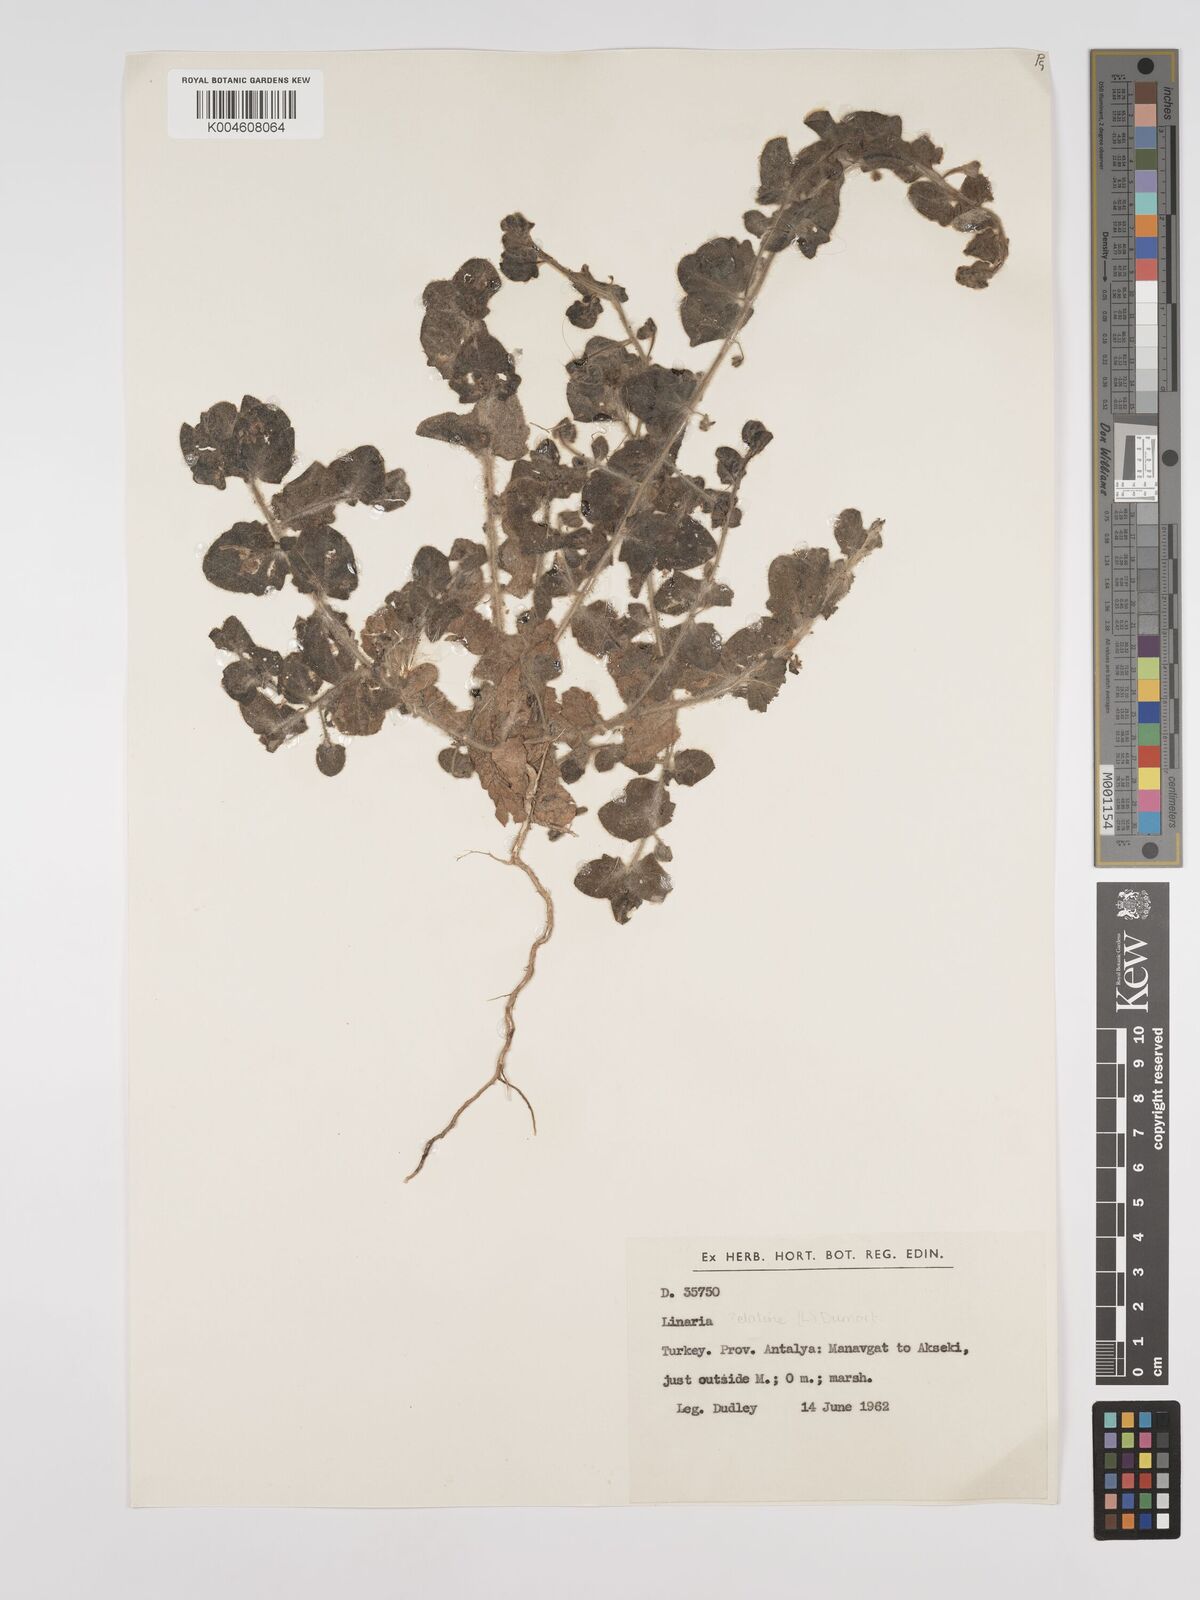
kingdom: Plantae
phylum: Tracheophyta
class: Magnoliopsida
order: Lamiales
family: Plantaginaceae
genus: Kickxia
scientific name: Kickxia elatine
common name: Sharp-leaved fluellen
